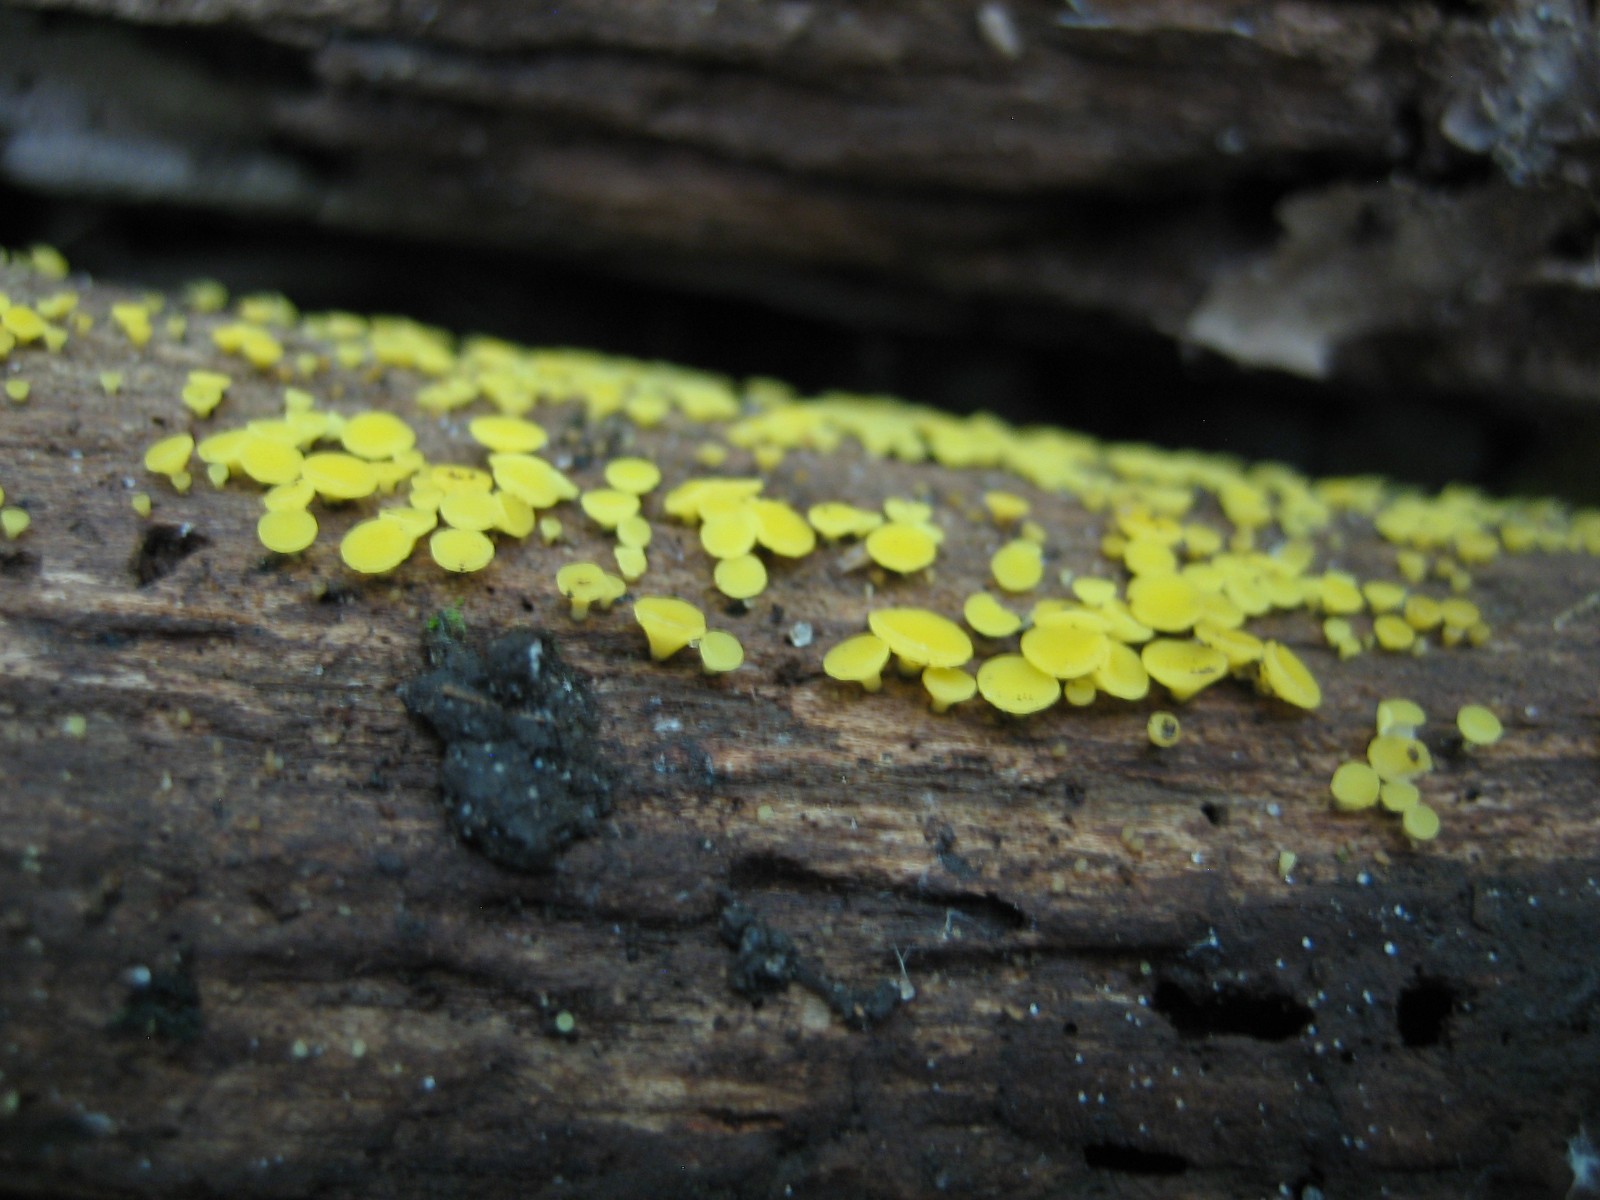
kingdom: Fungi
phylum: Ascomycota
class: Leotiomycetes
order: Helotiales
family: Pezizellaceae
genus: Calycina
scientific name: Calycina citrina
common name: almindelig gulskive
